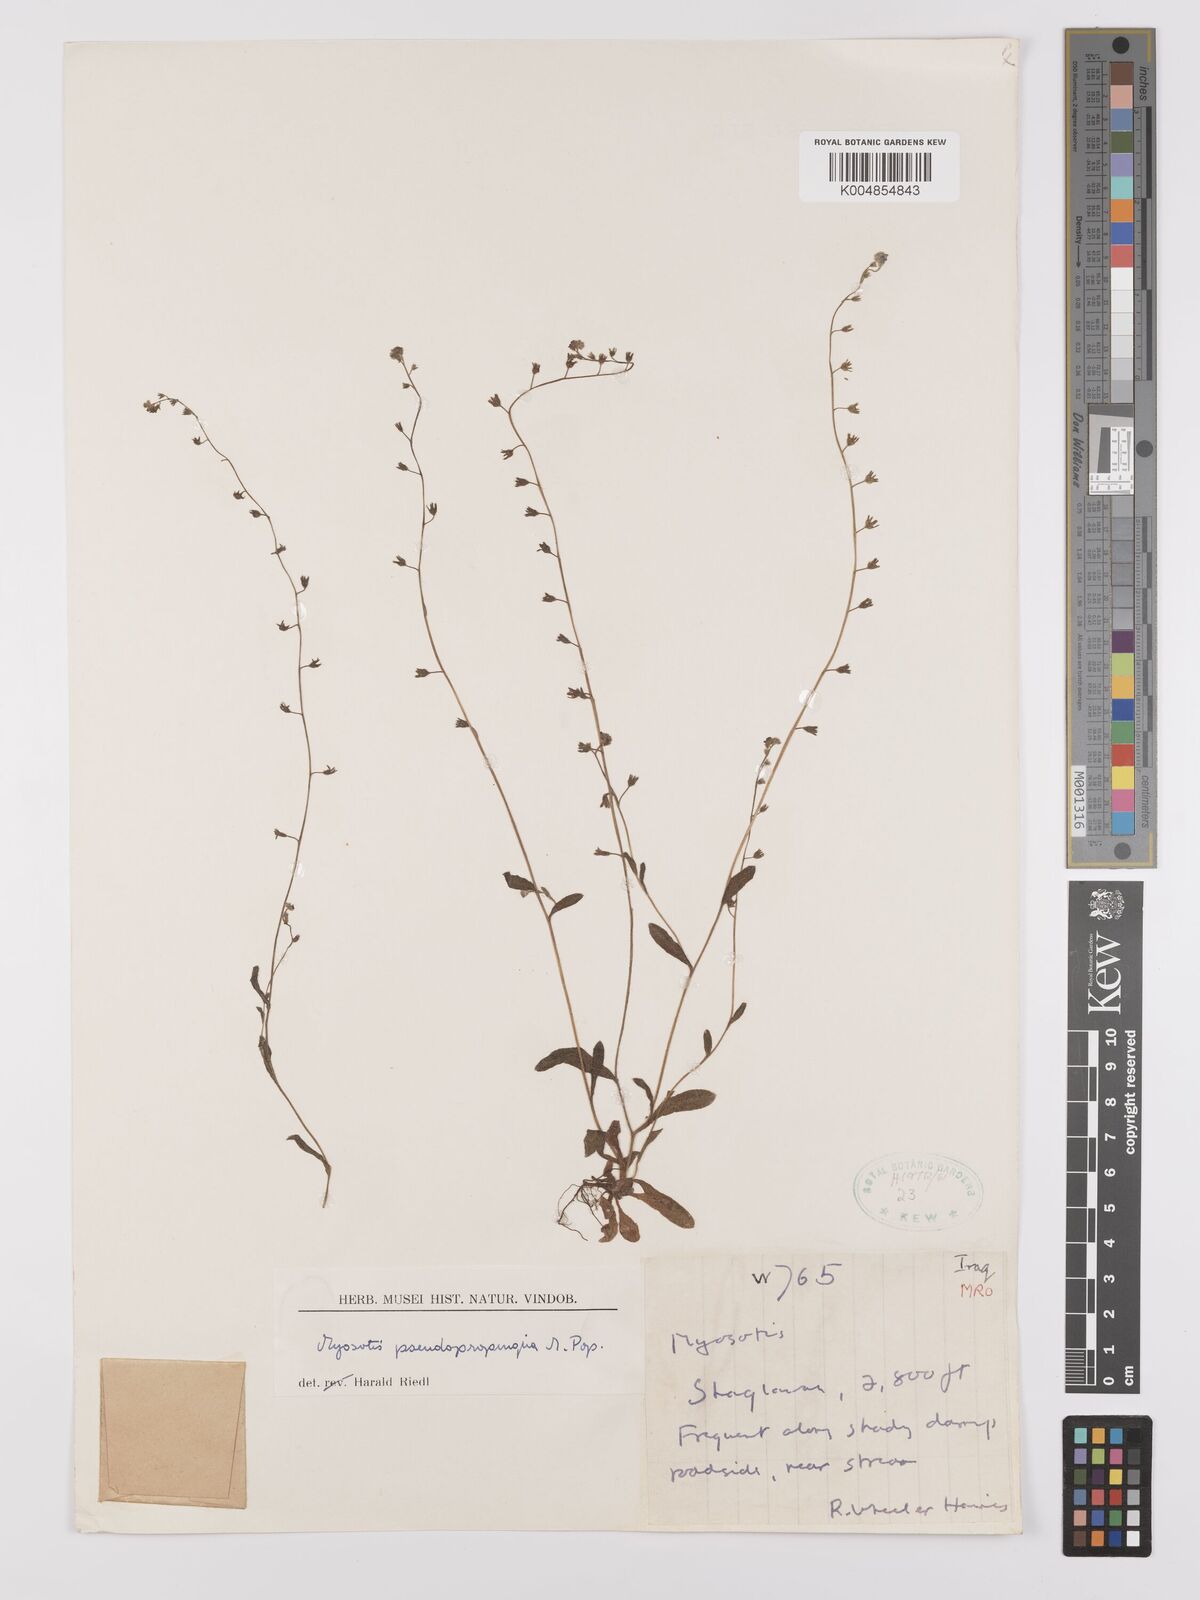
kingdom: Plantae
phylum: Tracheophyta
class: Magnoliopsida
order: Boraginales
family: Boraginaceae
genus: Myosotis
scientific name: Myosotis propinqua
